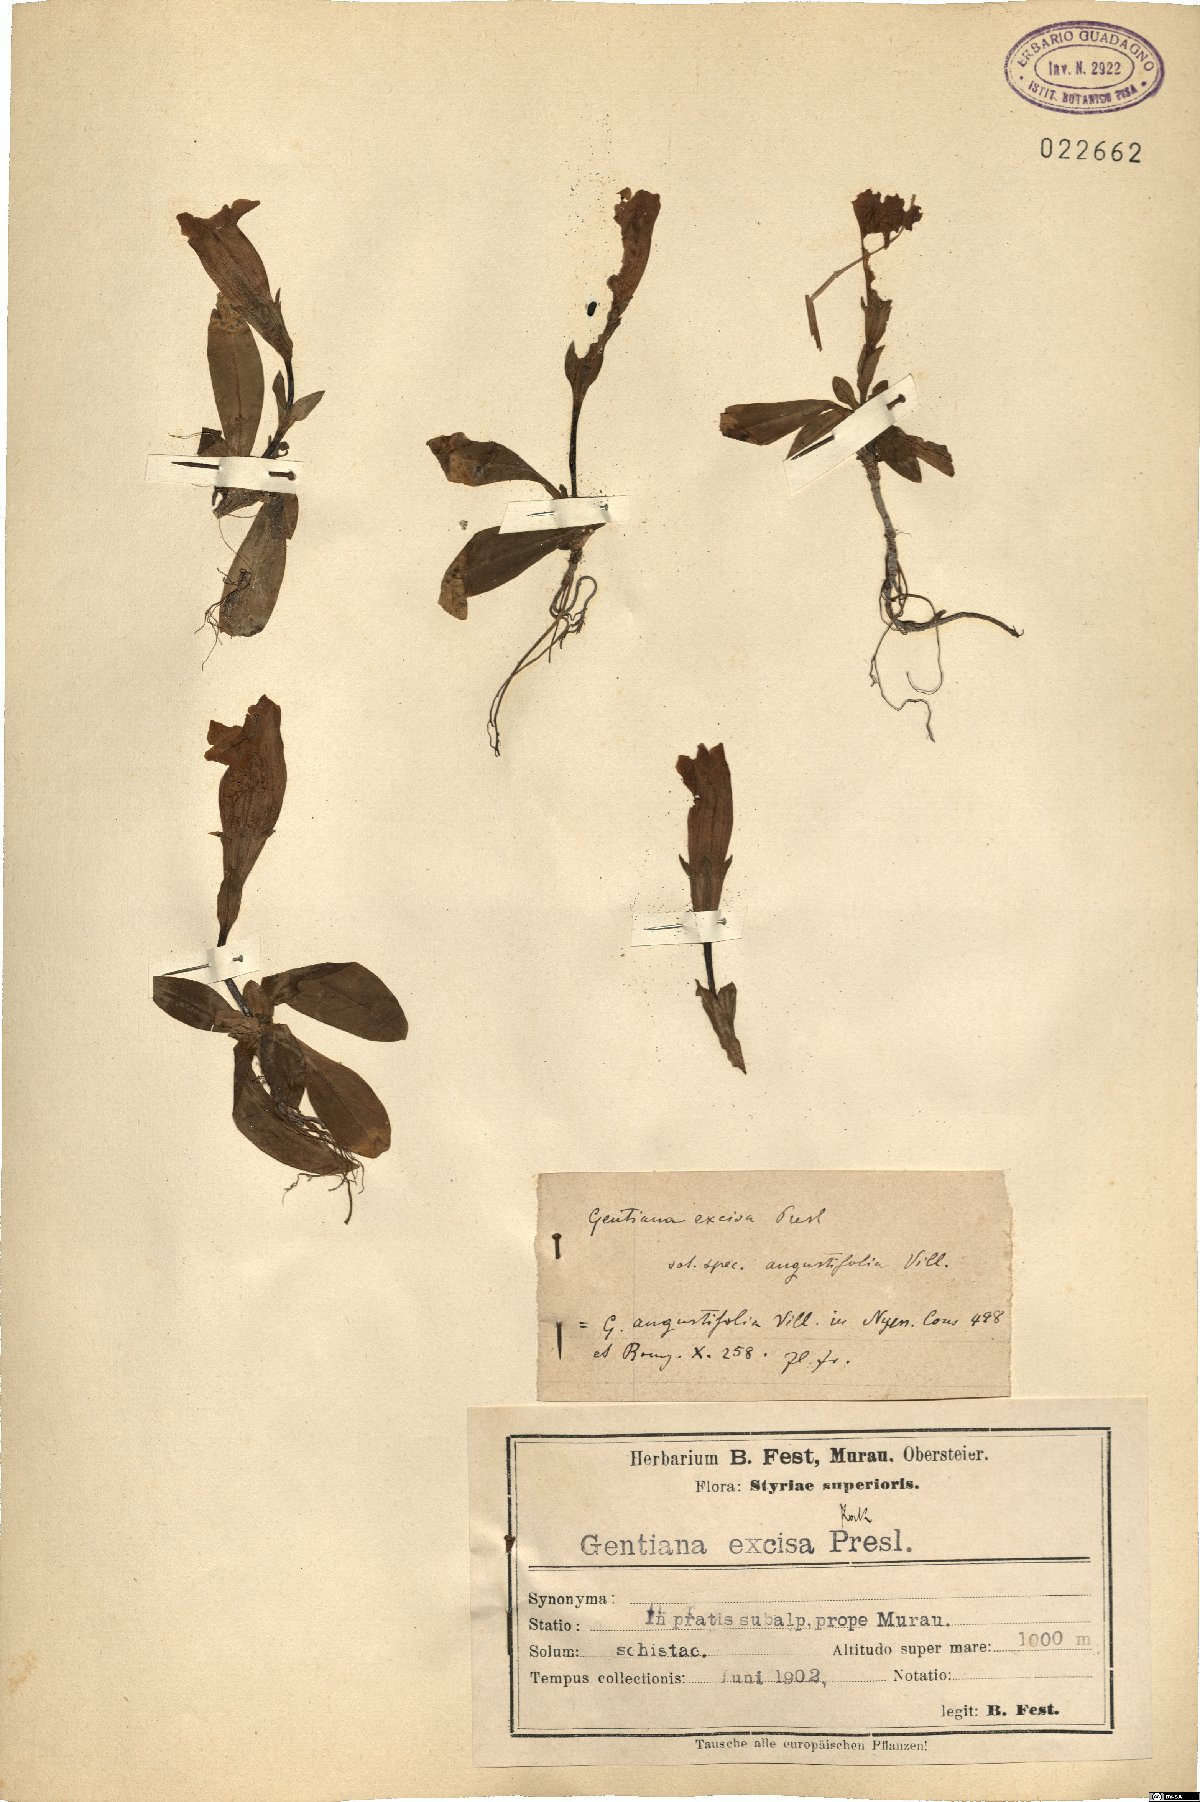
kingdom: Plantae
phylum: Tracheophyta
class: Magnoliopsida
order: Gentianales
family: Gentianaceae
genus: Gentiana
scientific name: Gentiana acaulis
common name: Trumpet gentian
